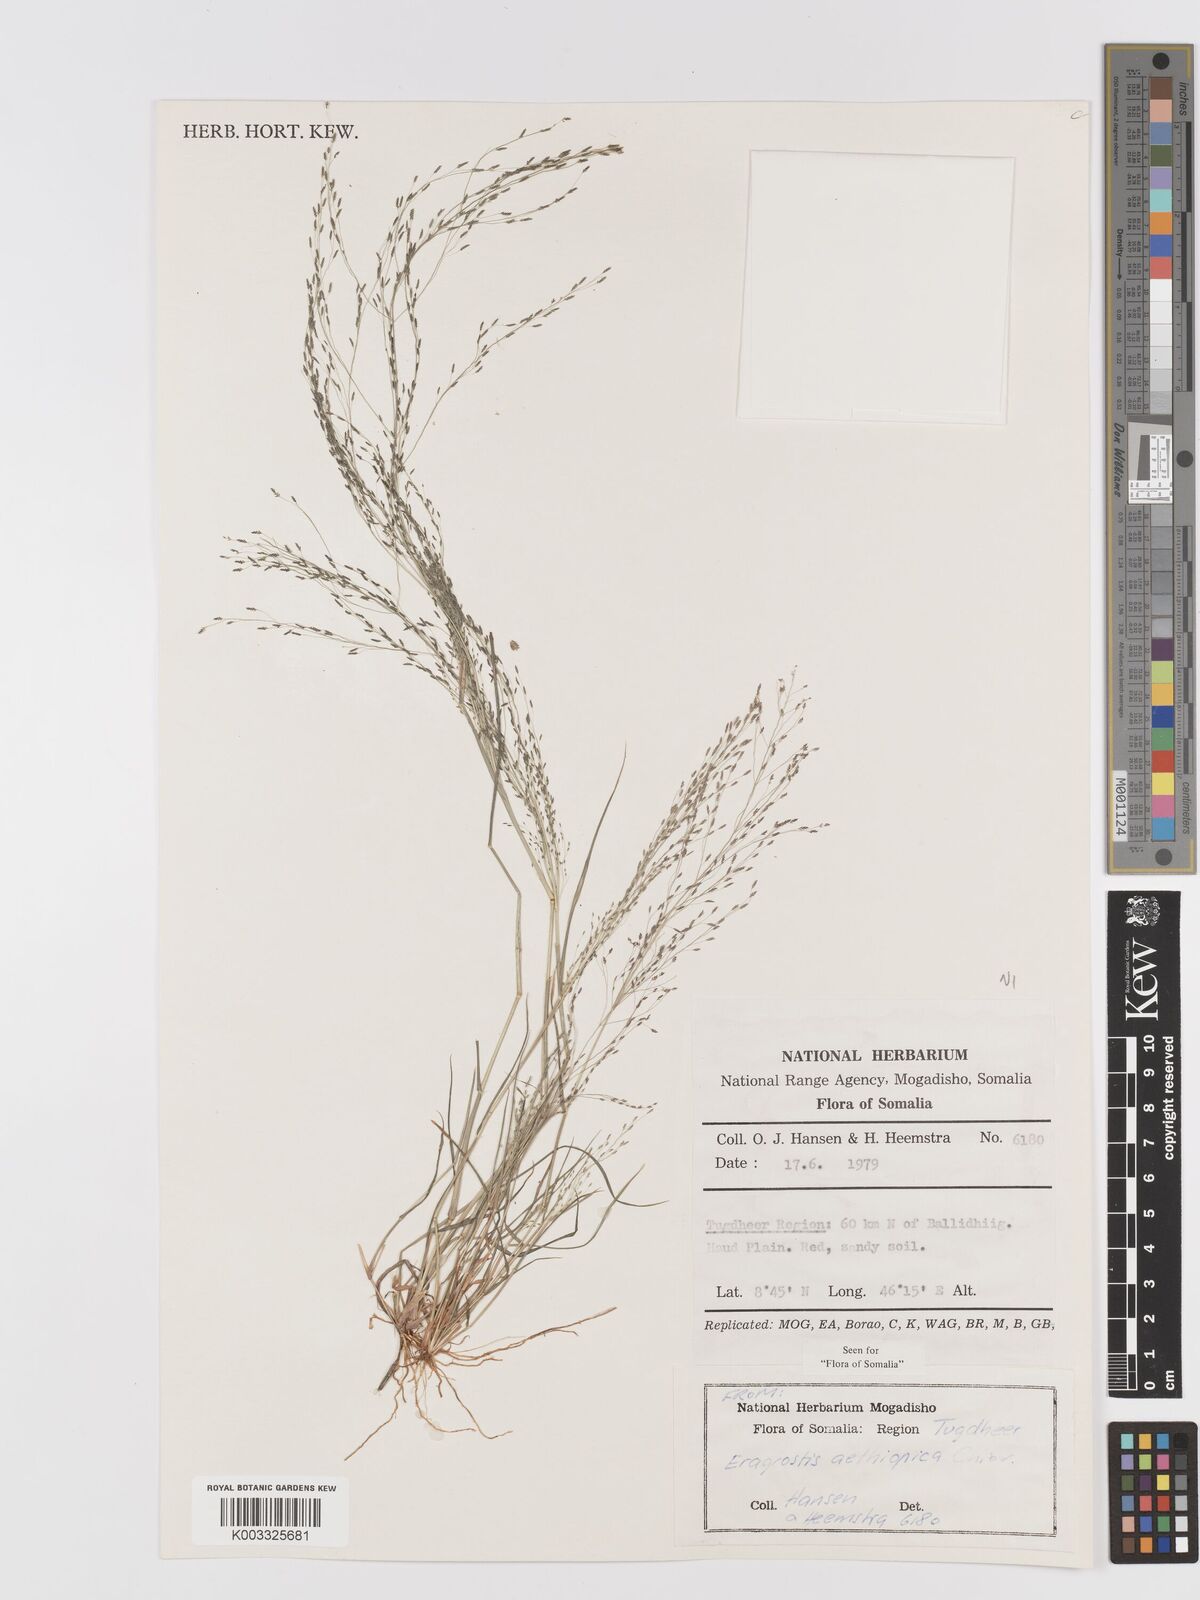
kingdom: Plantae
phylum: Tracheophyta
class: Liliopsida
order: Poales
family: Poaceae
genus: Eragrostis
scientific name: Eragrostis aethiopica
